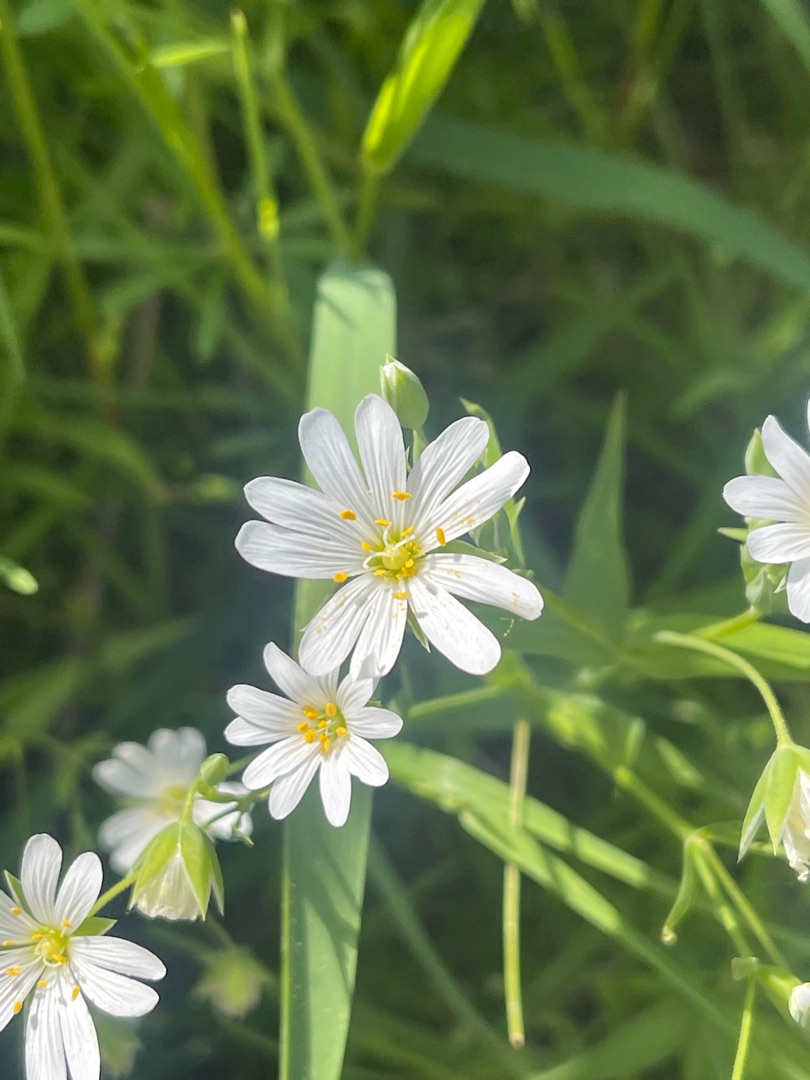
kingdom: Plantae
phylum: Tracheophyta
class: Magnoliopsida
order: Caryophyllales
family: Caryophyllaceae
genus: Rabelera
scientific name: Rabelera holostea
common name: Stor fladstjerne
